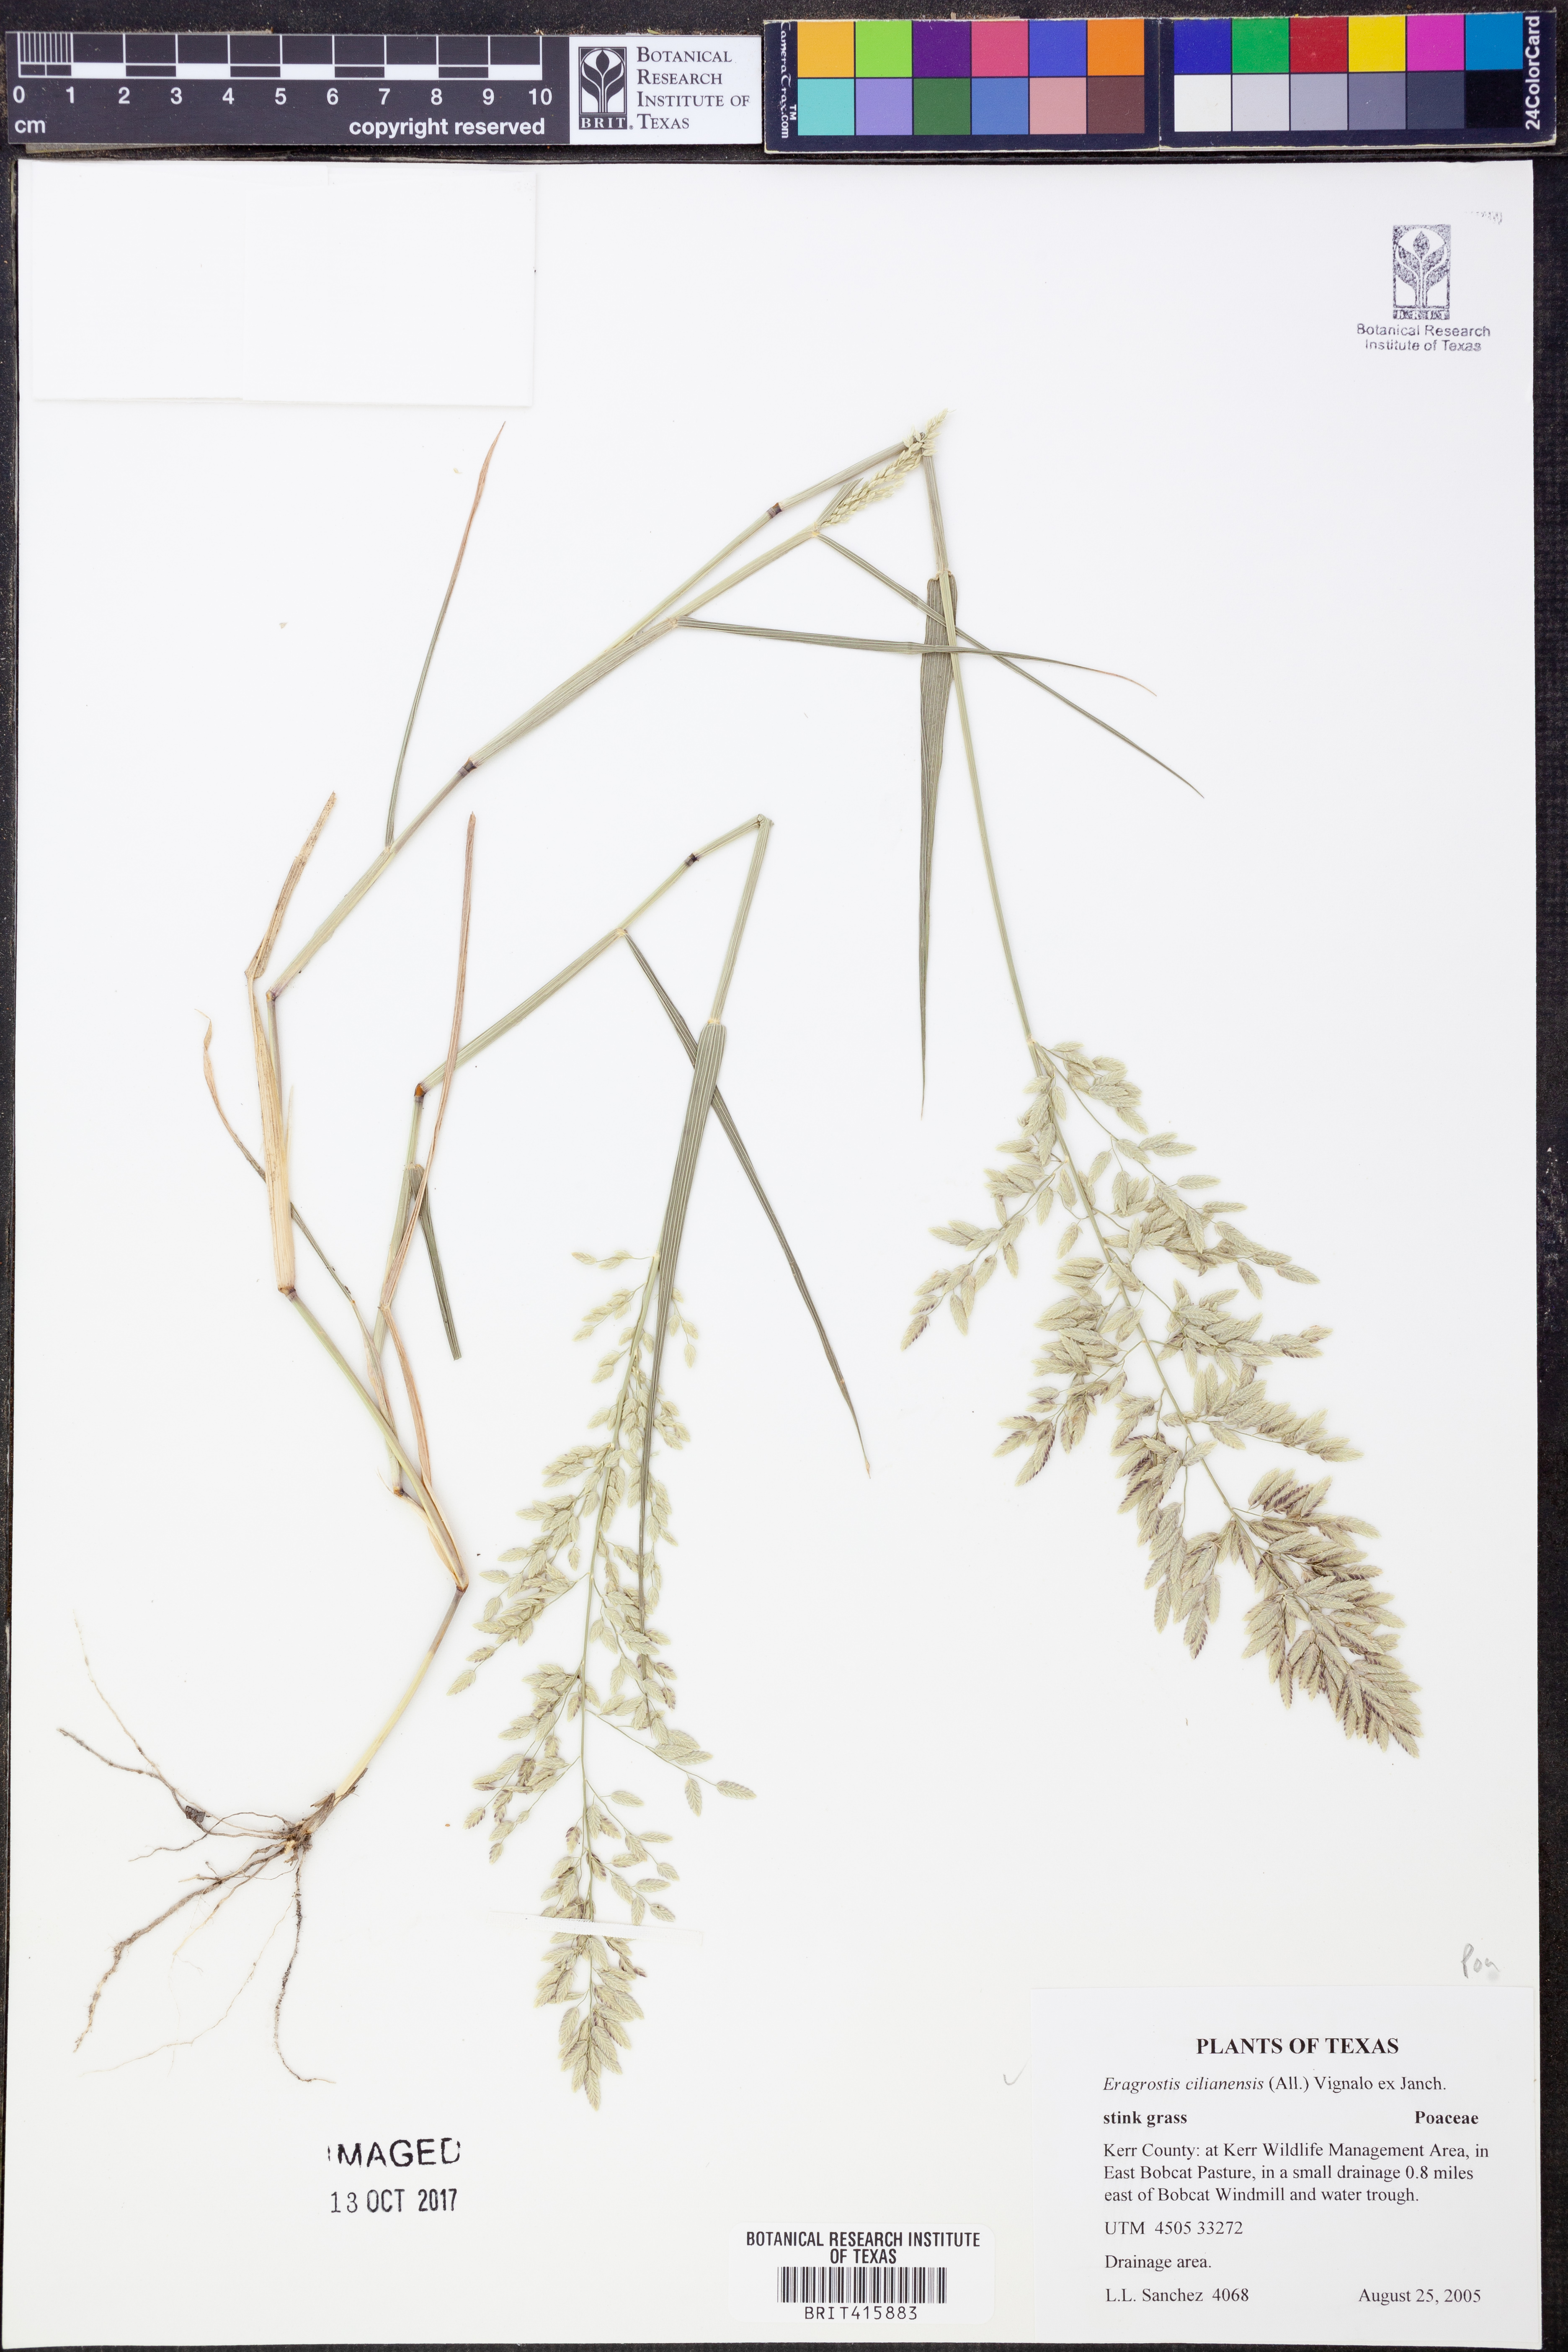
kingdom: Plantae
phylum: Tracheophyta
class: Liliopsida
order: Poales
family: Poaceae
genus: Eragrostis
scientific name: Eragrostis cilianensis
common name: Stinkgrass
